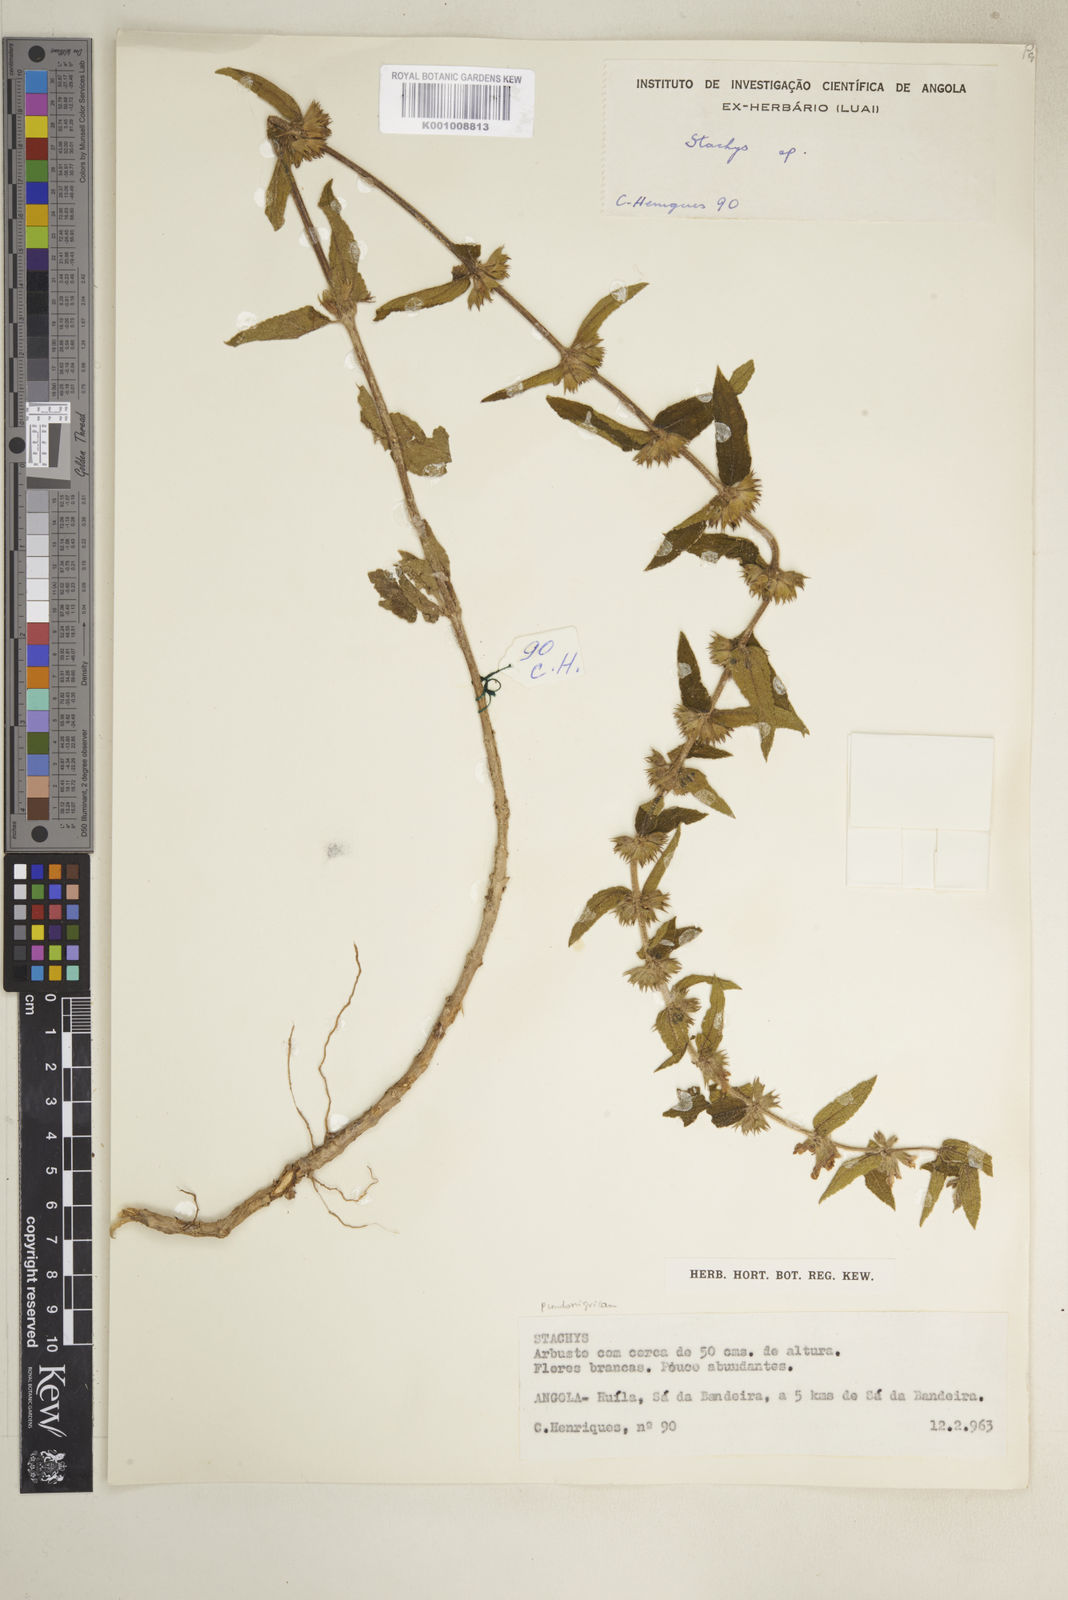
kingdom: Plantae
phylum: Tracheophyta
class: Magnoliopsida
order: Lamiales
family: Lamiaceae
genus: Stachys
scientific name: Stachys
